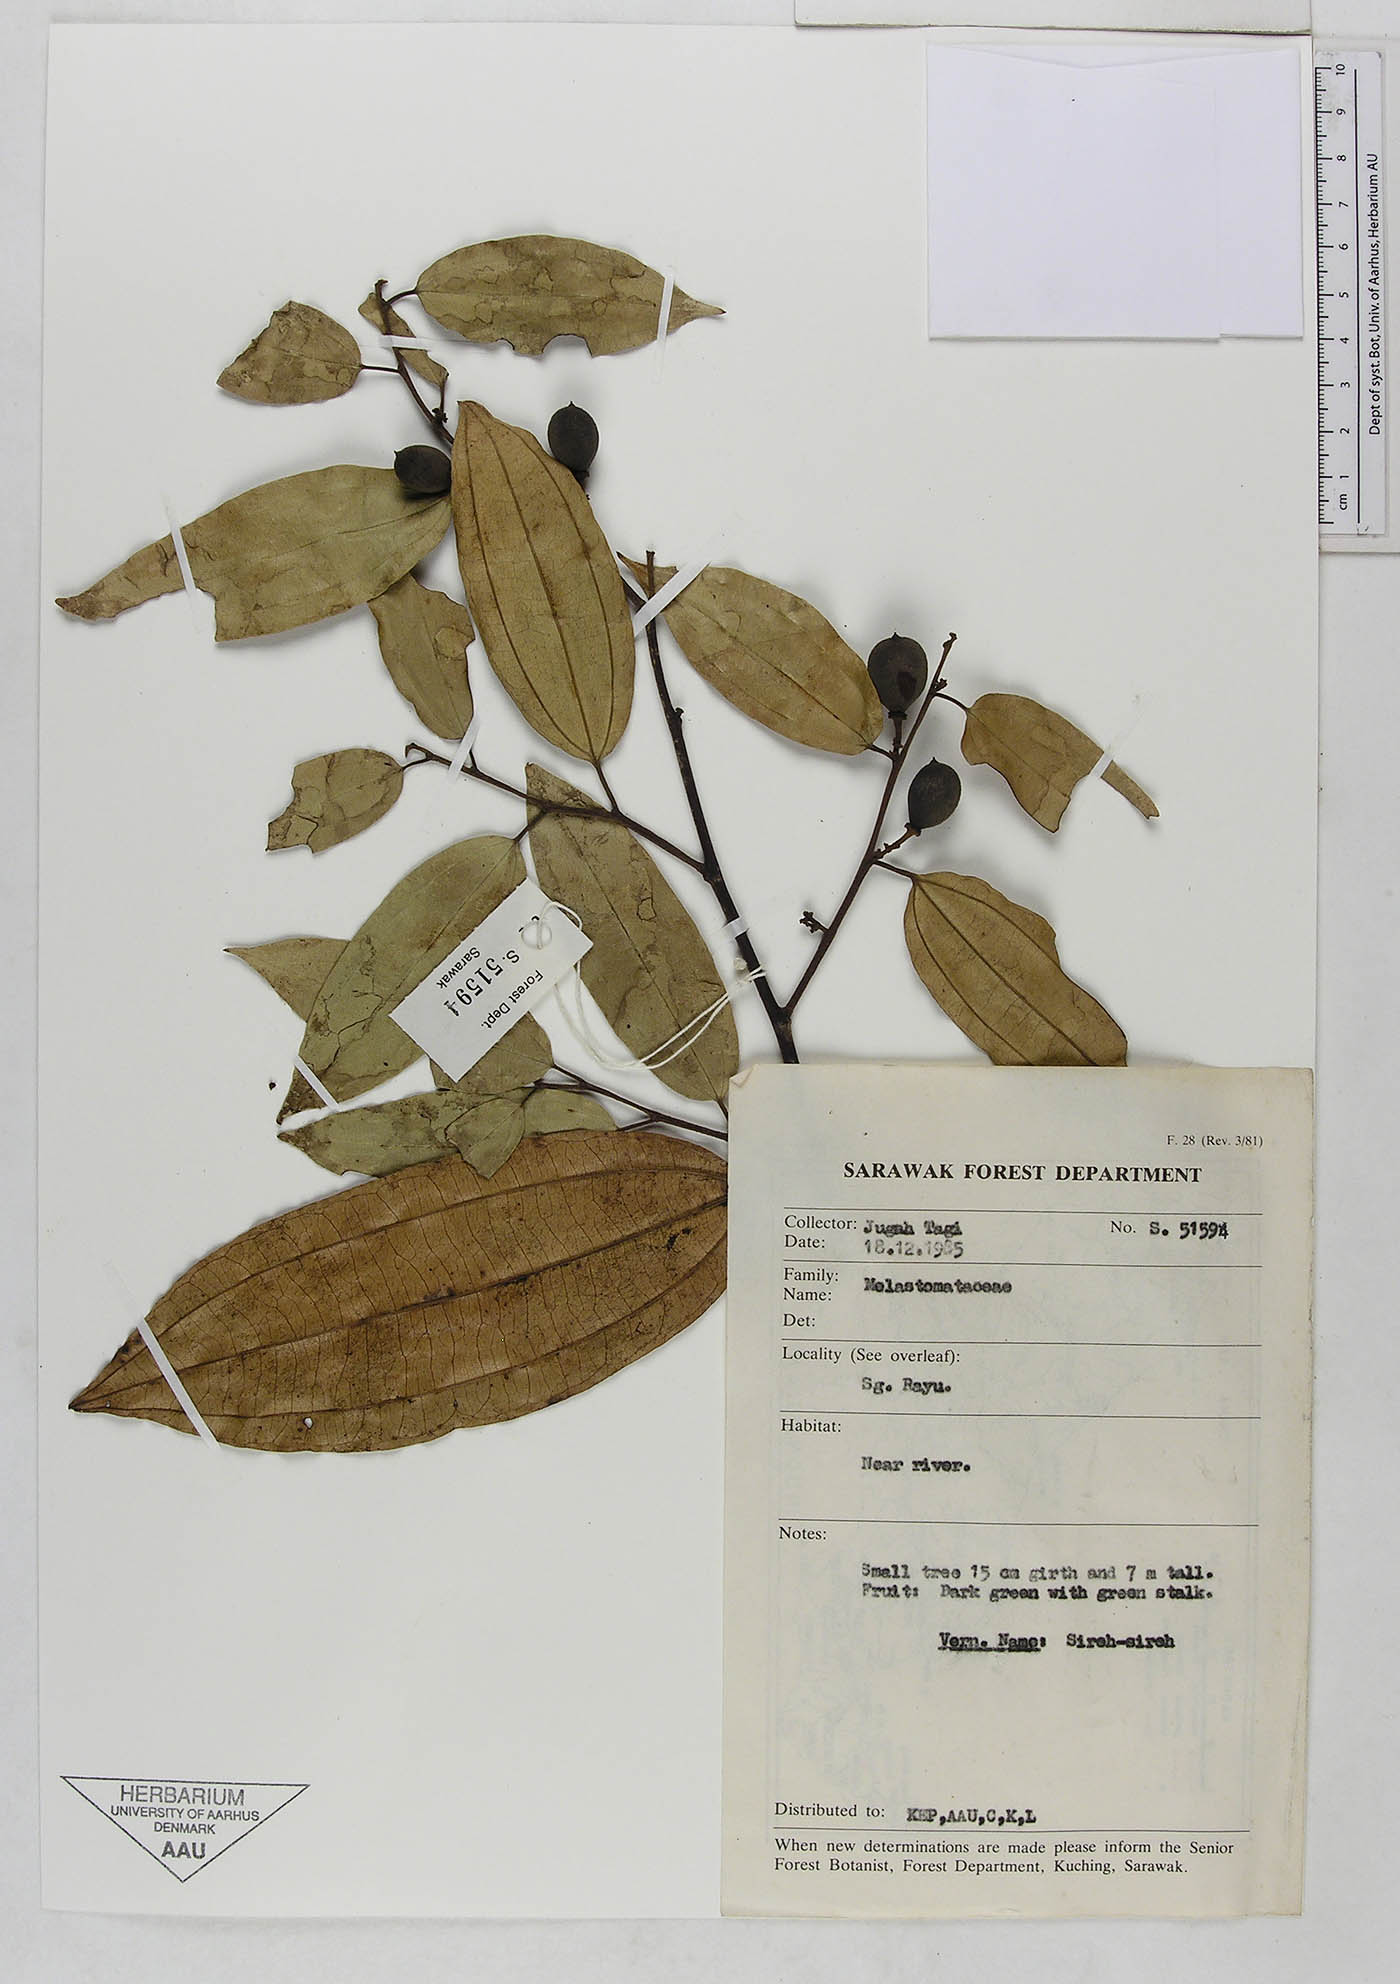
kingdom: Plantae
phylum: Tracheophyta
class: Magnoliopsida
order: Myrtales
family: Melastomataceae
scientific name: Melastomataceae
